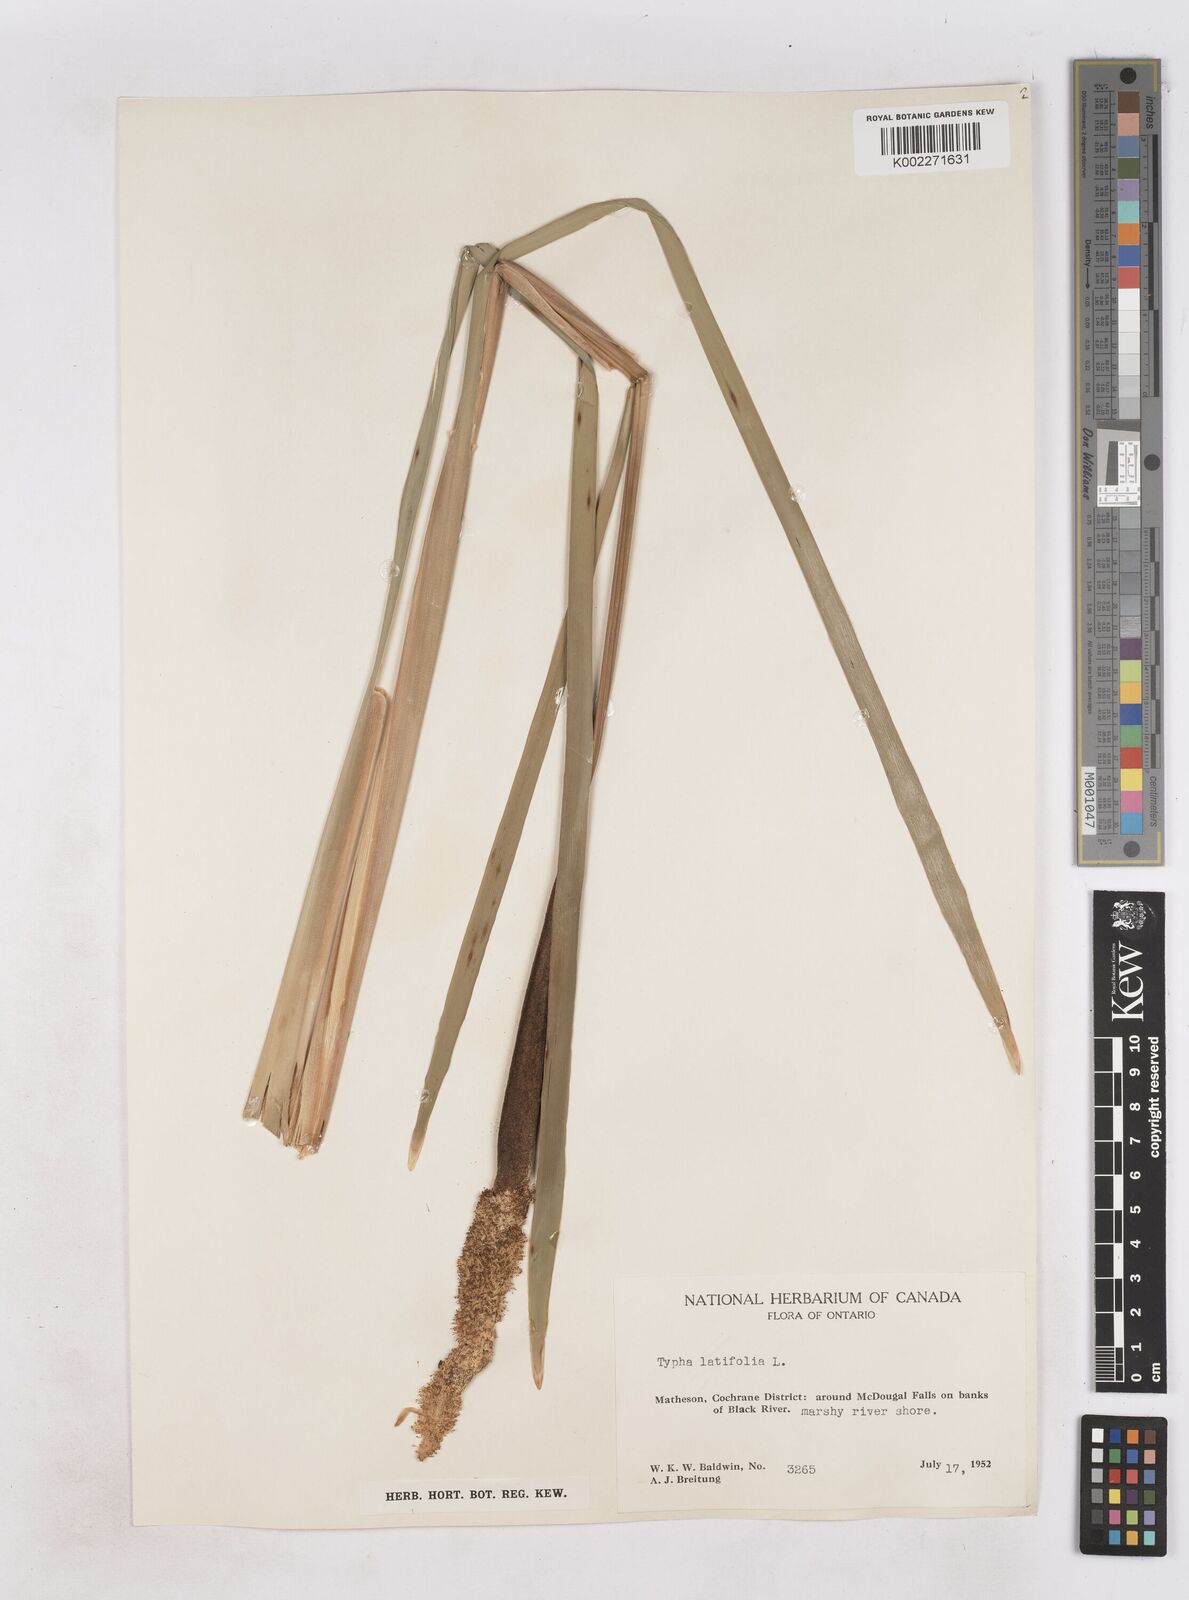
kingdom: Plantae
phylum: Tracheophyta
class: Liliopsida
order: Poales
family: Typhaceae
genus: Typha
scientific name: Typha latifolia
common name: Broadleaf cattail
